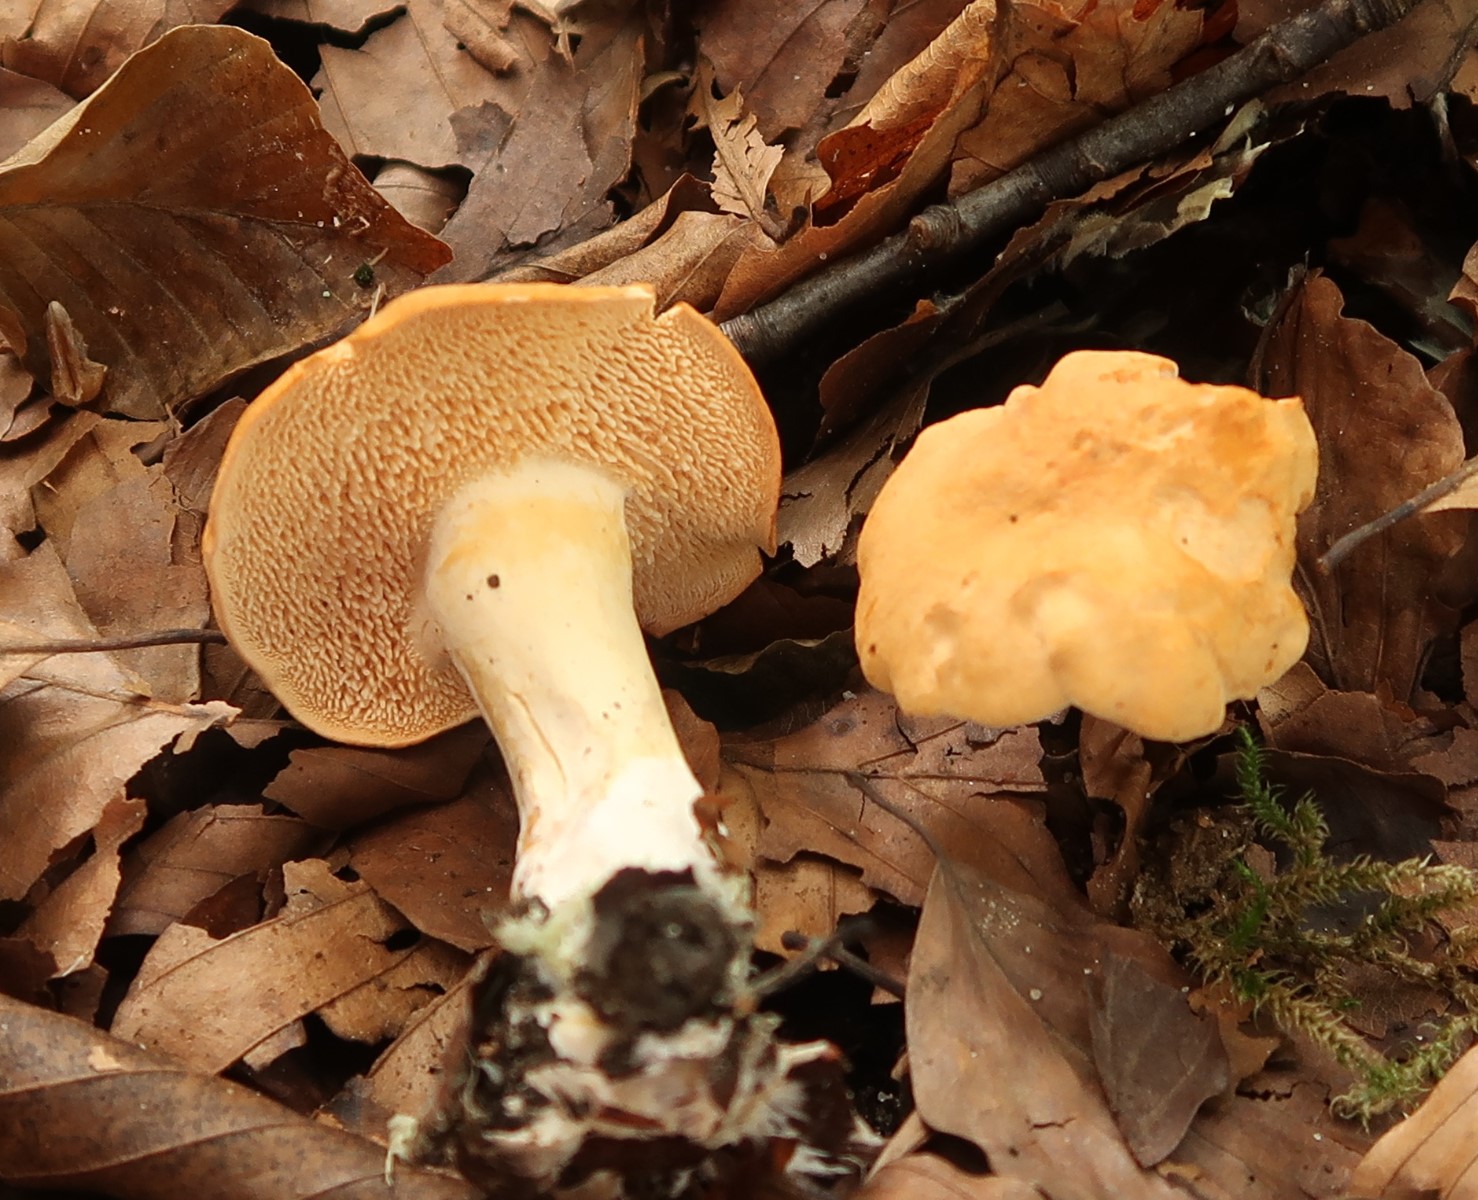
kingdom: Fungi
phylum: Basidiomycota
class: Agaricomycetes
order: Cantharellales
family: Hydnaceae
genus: Hydnum
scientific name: Hydnum
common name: pigsvamp
